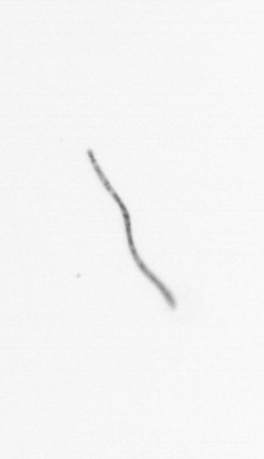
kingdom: Chromista
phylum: Ochrophyta
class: Bacillariophyceae
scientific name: Bacillariophyceae
